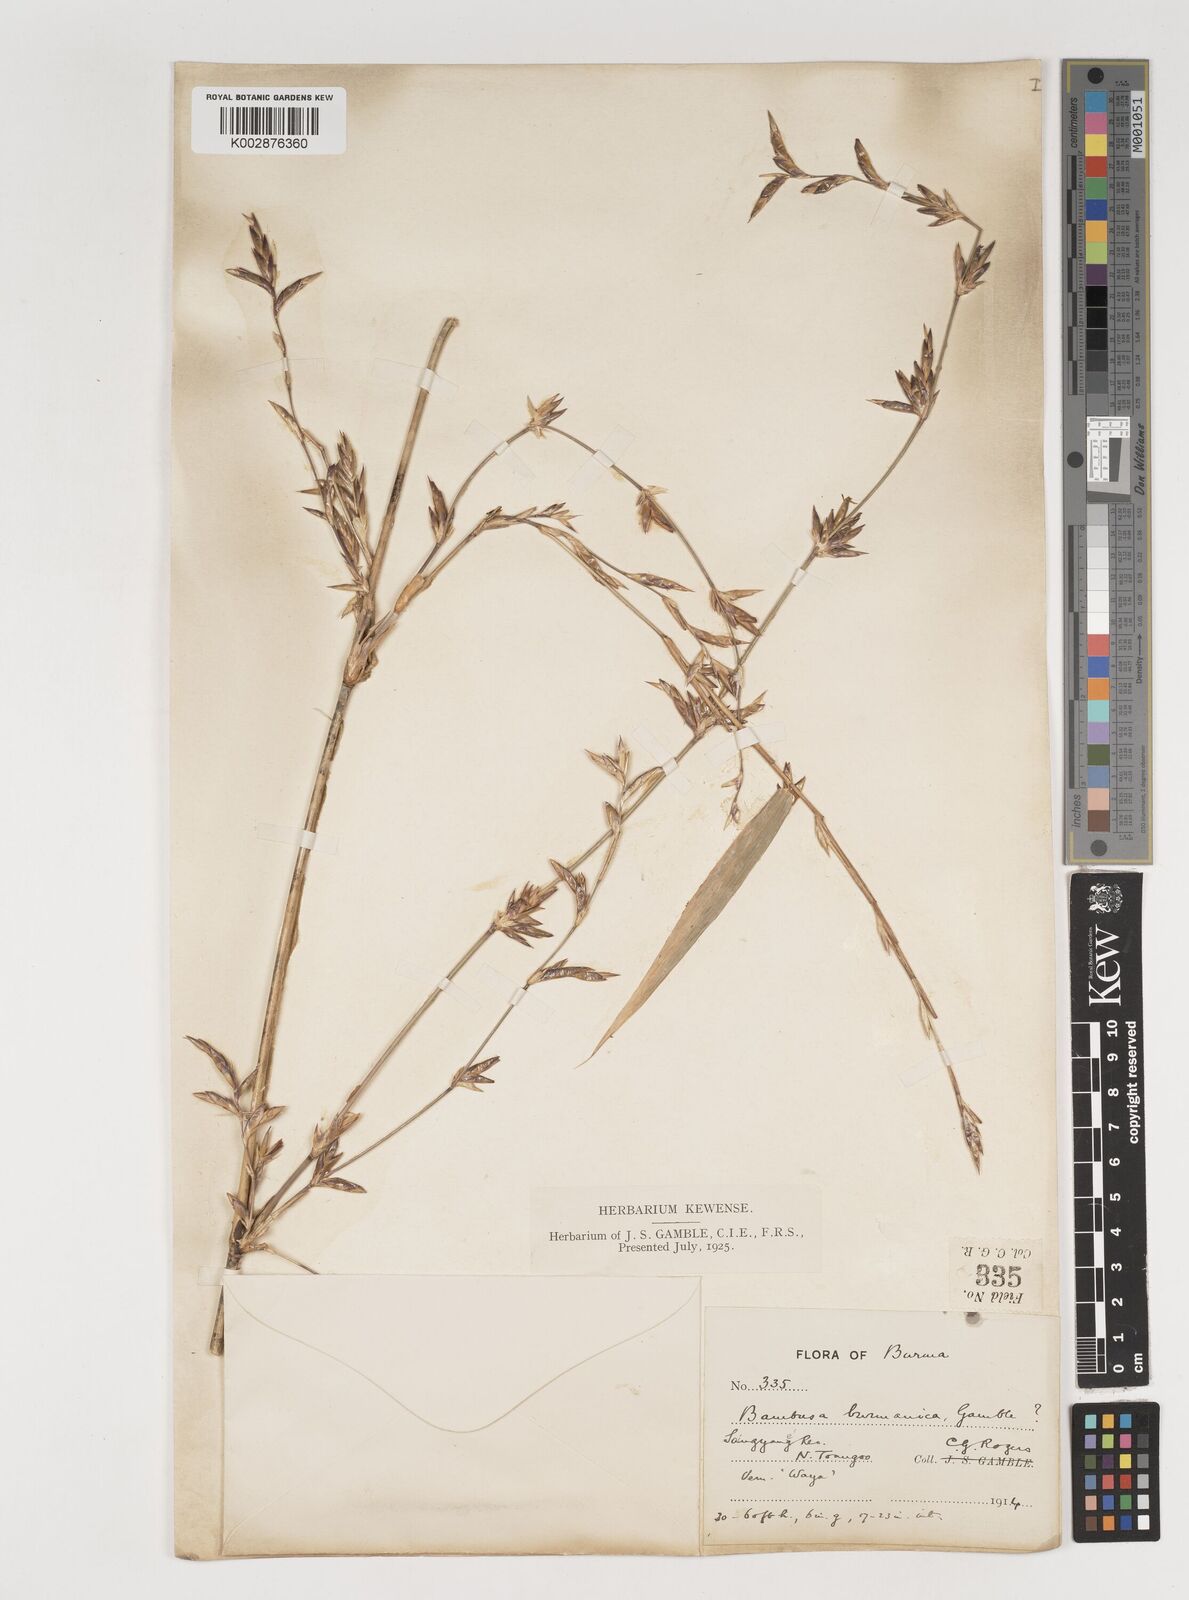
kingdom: Plantae
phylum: Tracheophyta
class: Liliopsida
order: Poales
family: Poaceae
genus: Bambusa
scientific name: Bambusa burmanica
